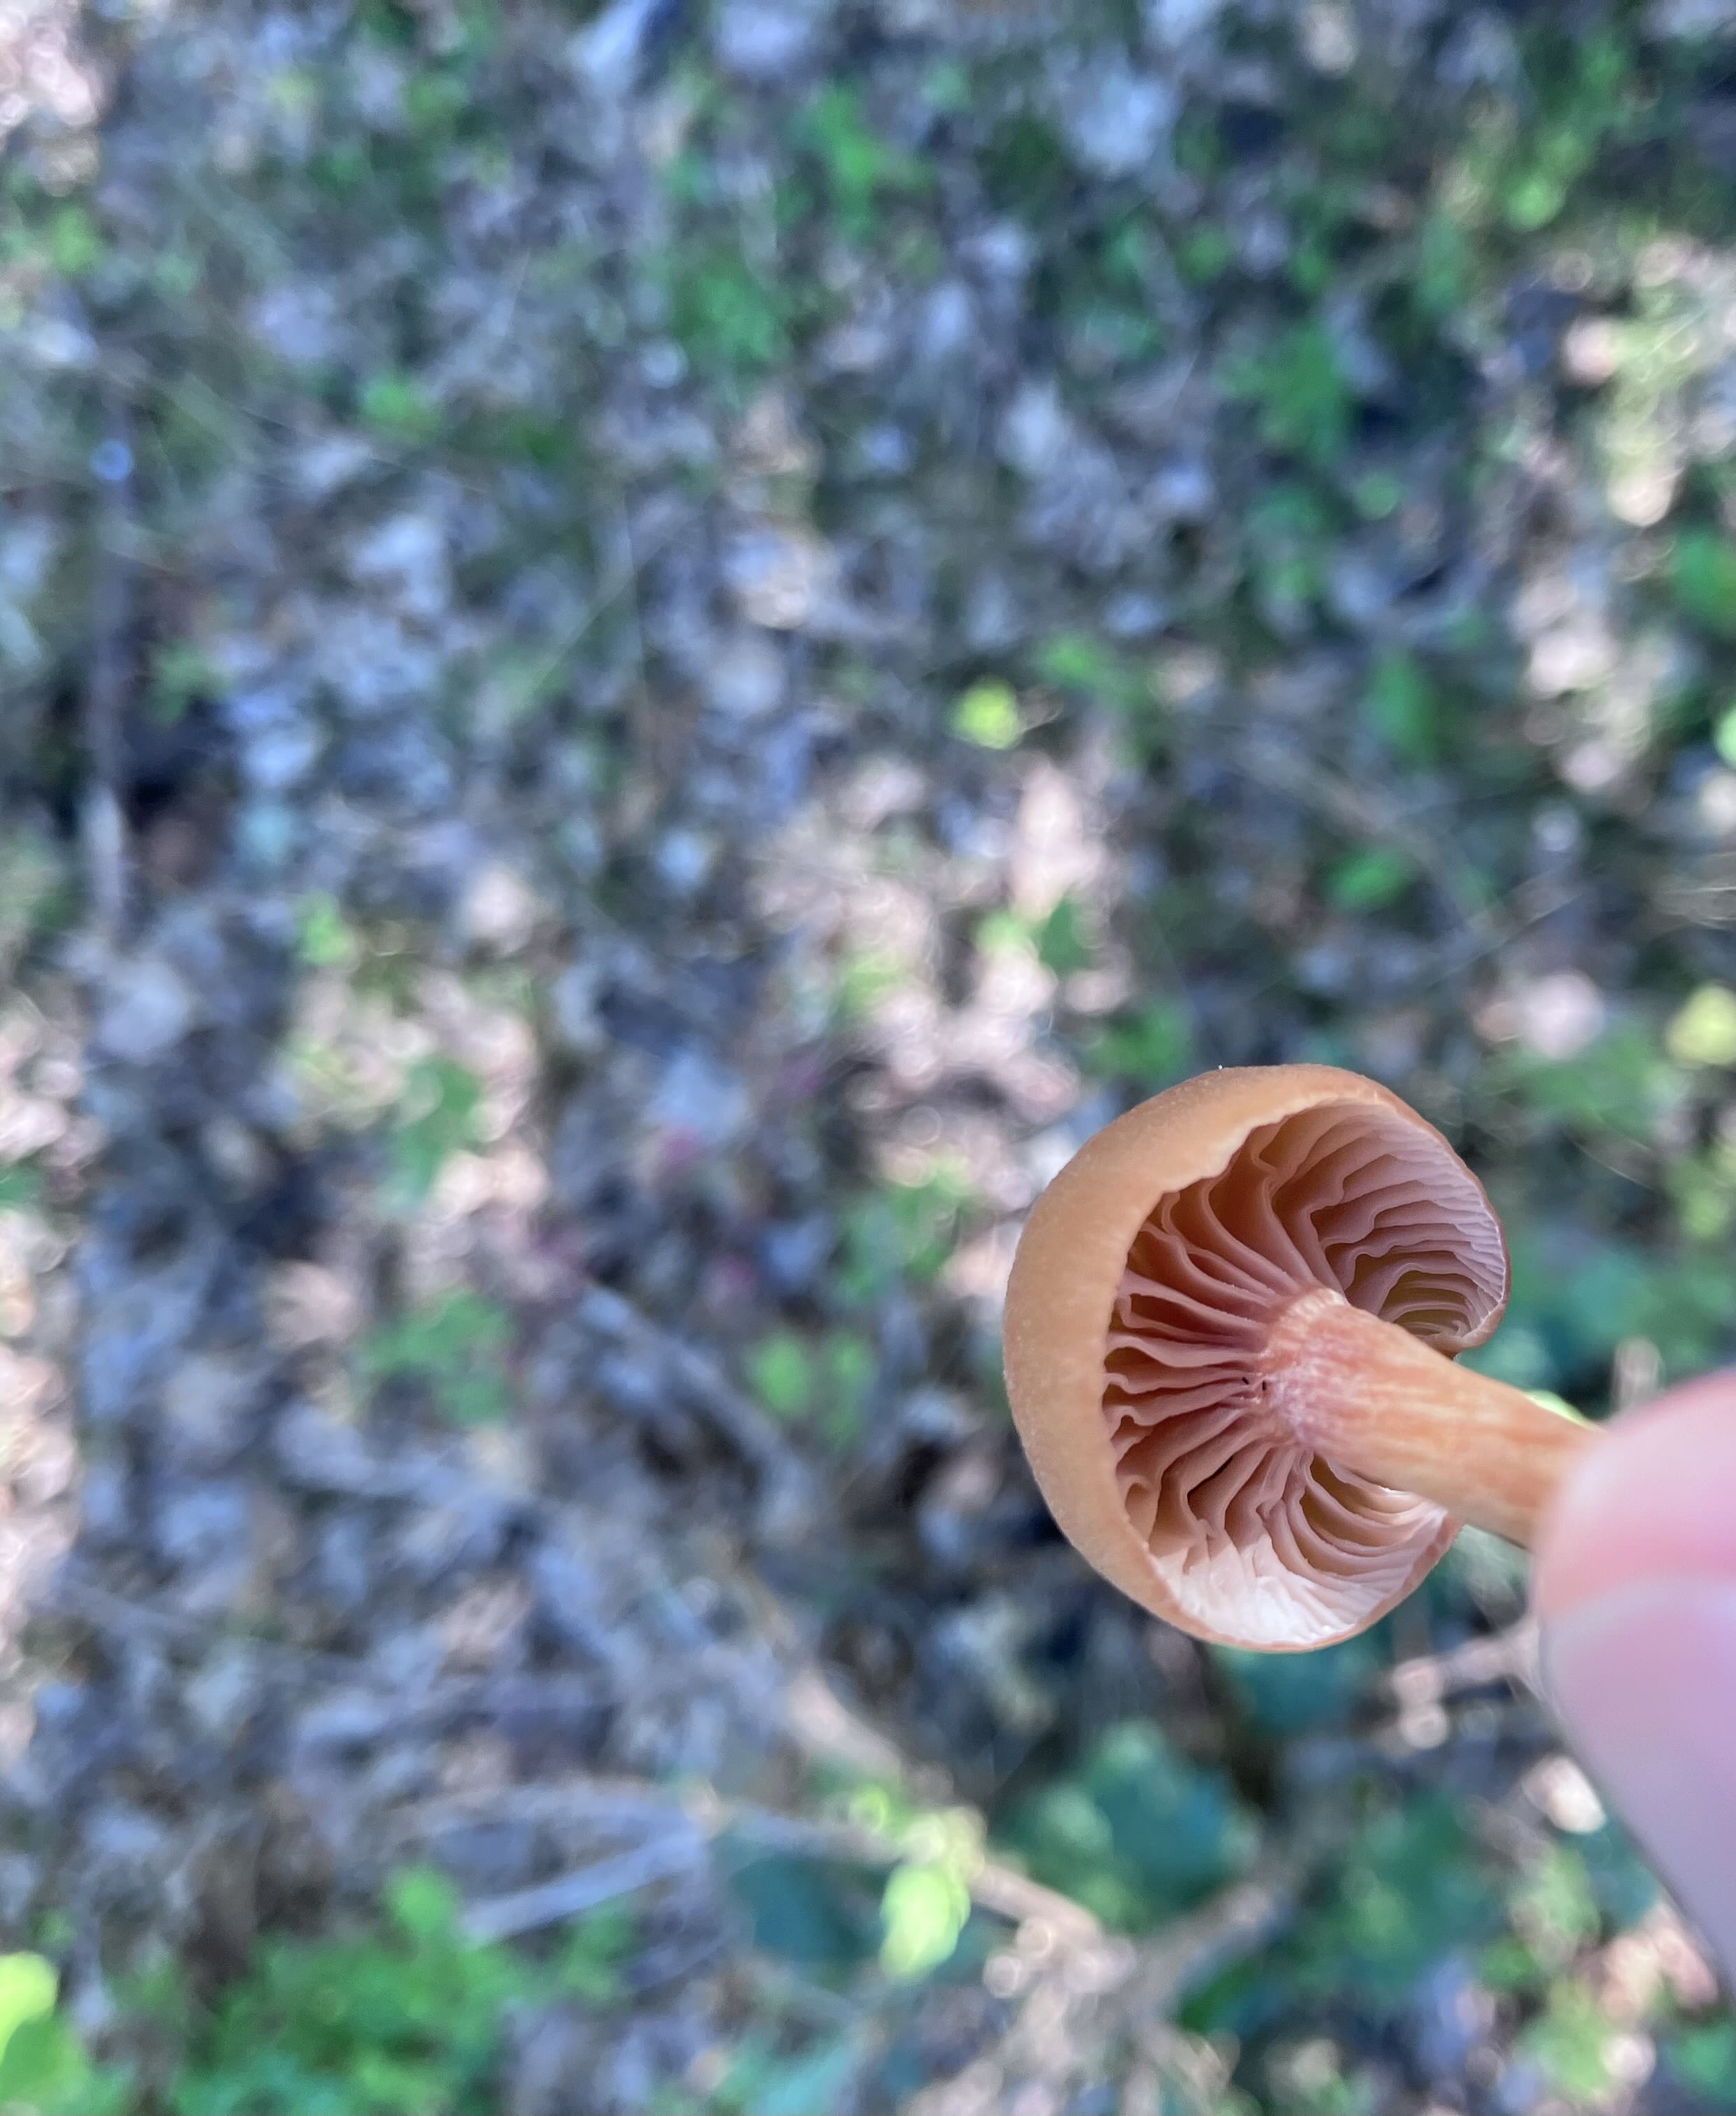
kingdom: Fungi
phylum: Basidiomycota
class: Agaricomycetes
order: Agaricales
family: Hydnangiaceae
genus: Laccaria
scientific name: Laccaria laccata
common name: rød ametysthat
